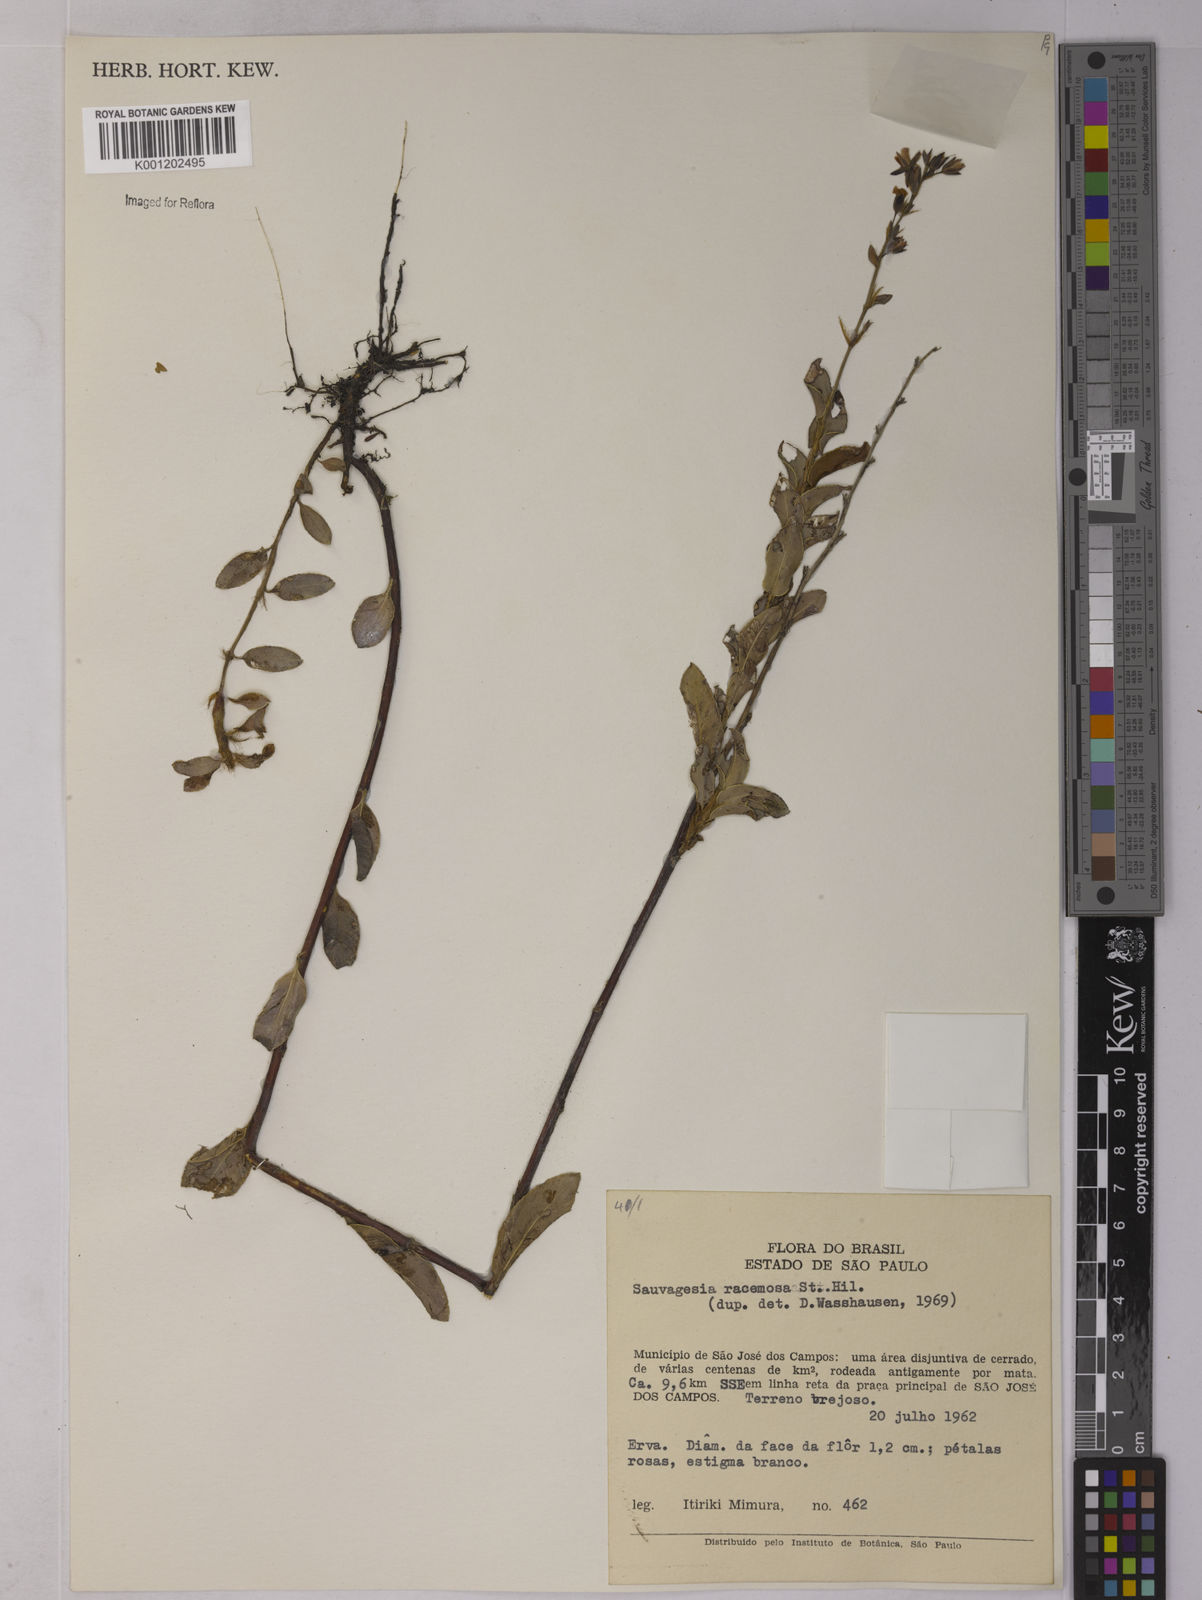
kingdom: Plantae
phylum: Tracheophyta
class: Magnoliopsida
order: Malpighiales
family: Ochnaceae
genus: Sauvagesia
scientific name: Sauvagesia racemosa
